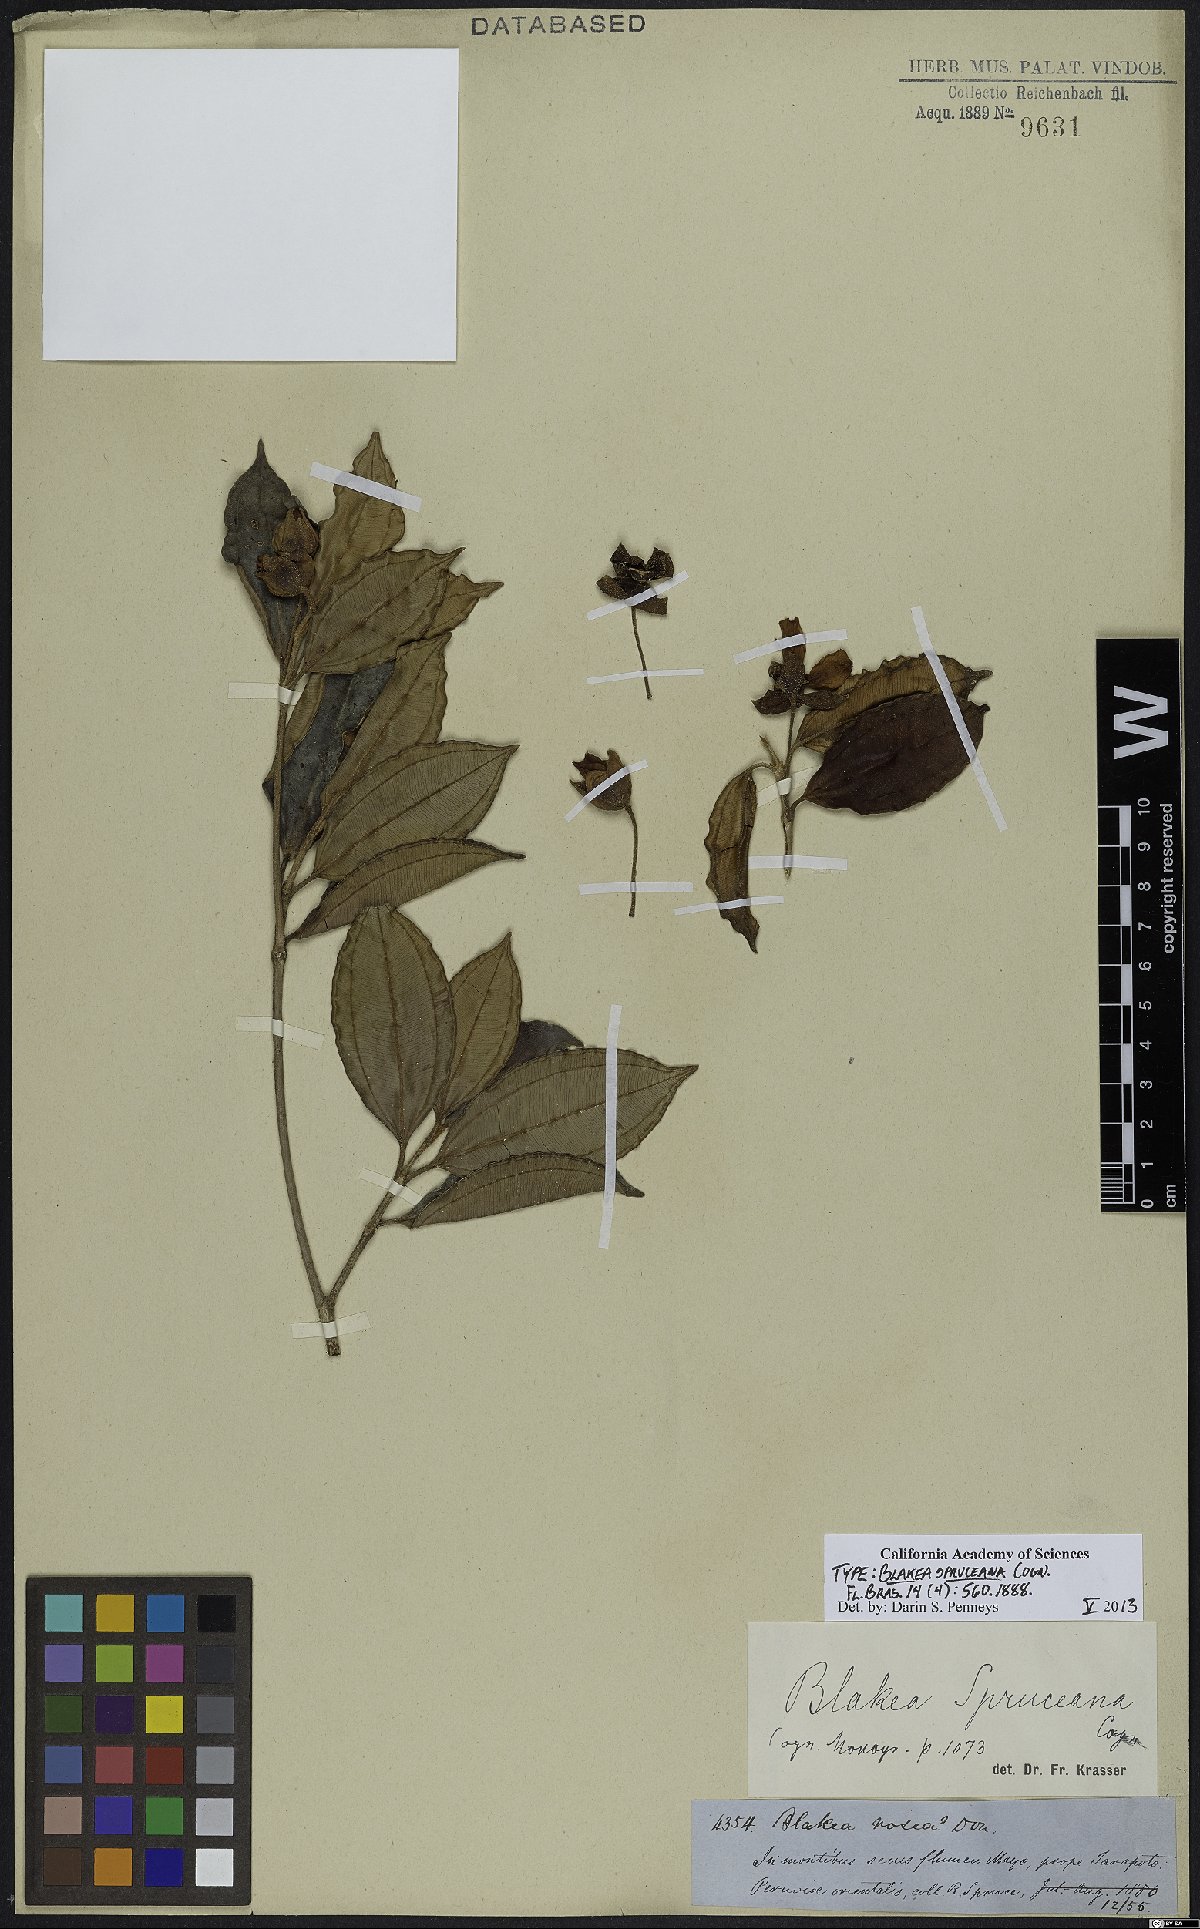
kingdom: Plantae
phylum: Tracheophyta
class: Magnoliopsida
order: Myrtales
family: Melastomataceae
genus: Blakea
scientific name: Blakea spruceana
